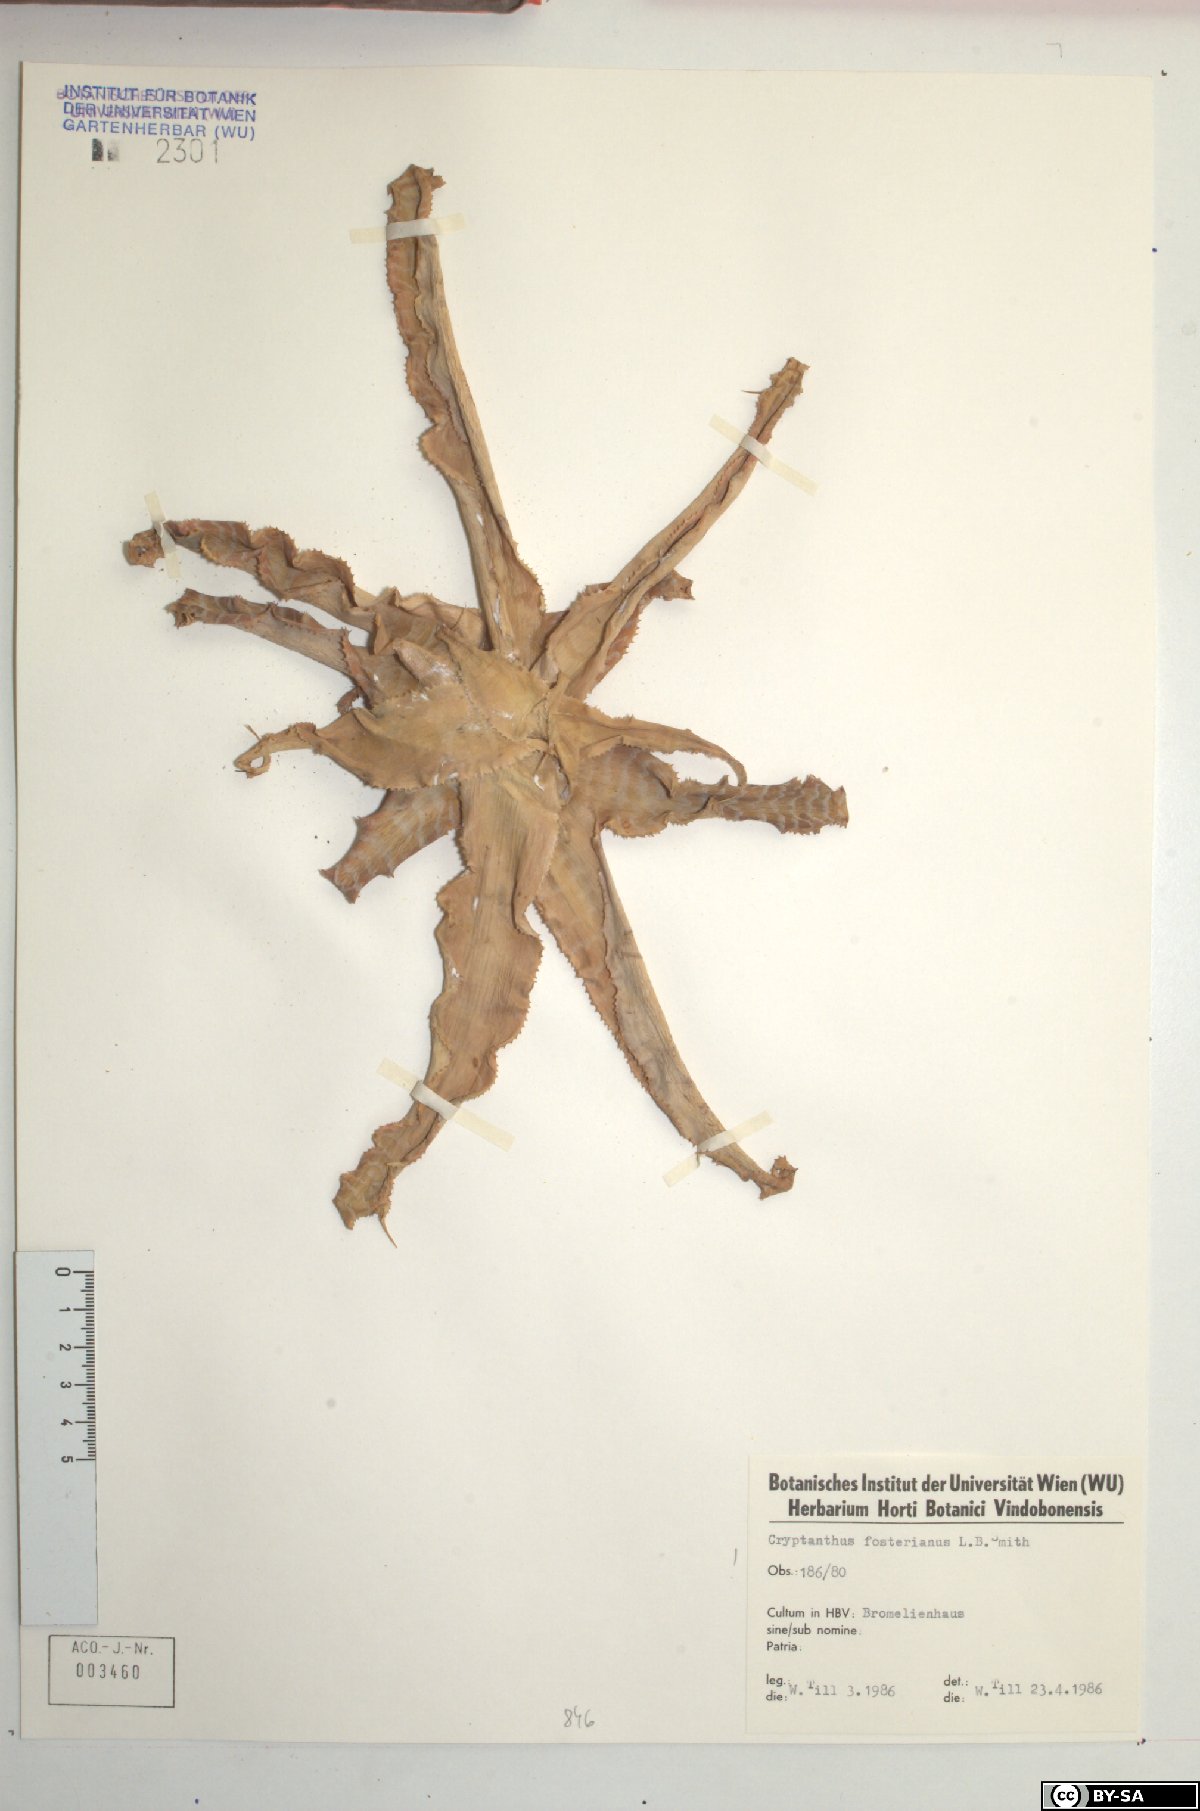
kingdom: Plantae
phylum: Tracheophyta
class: Liliopsida
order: Poales
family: Bromeliaceae
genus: Cryptanthus
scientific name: Cryptanthus zonatus
